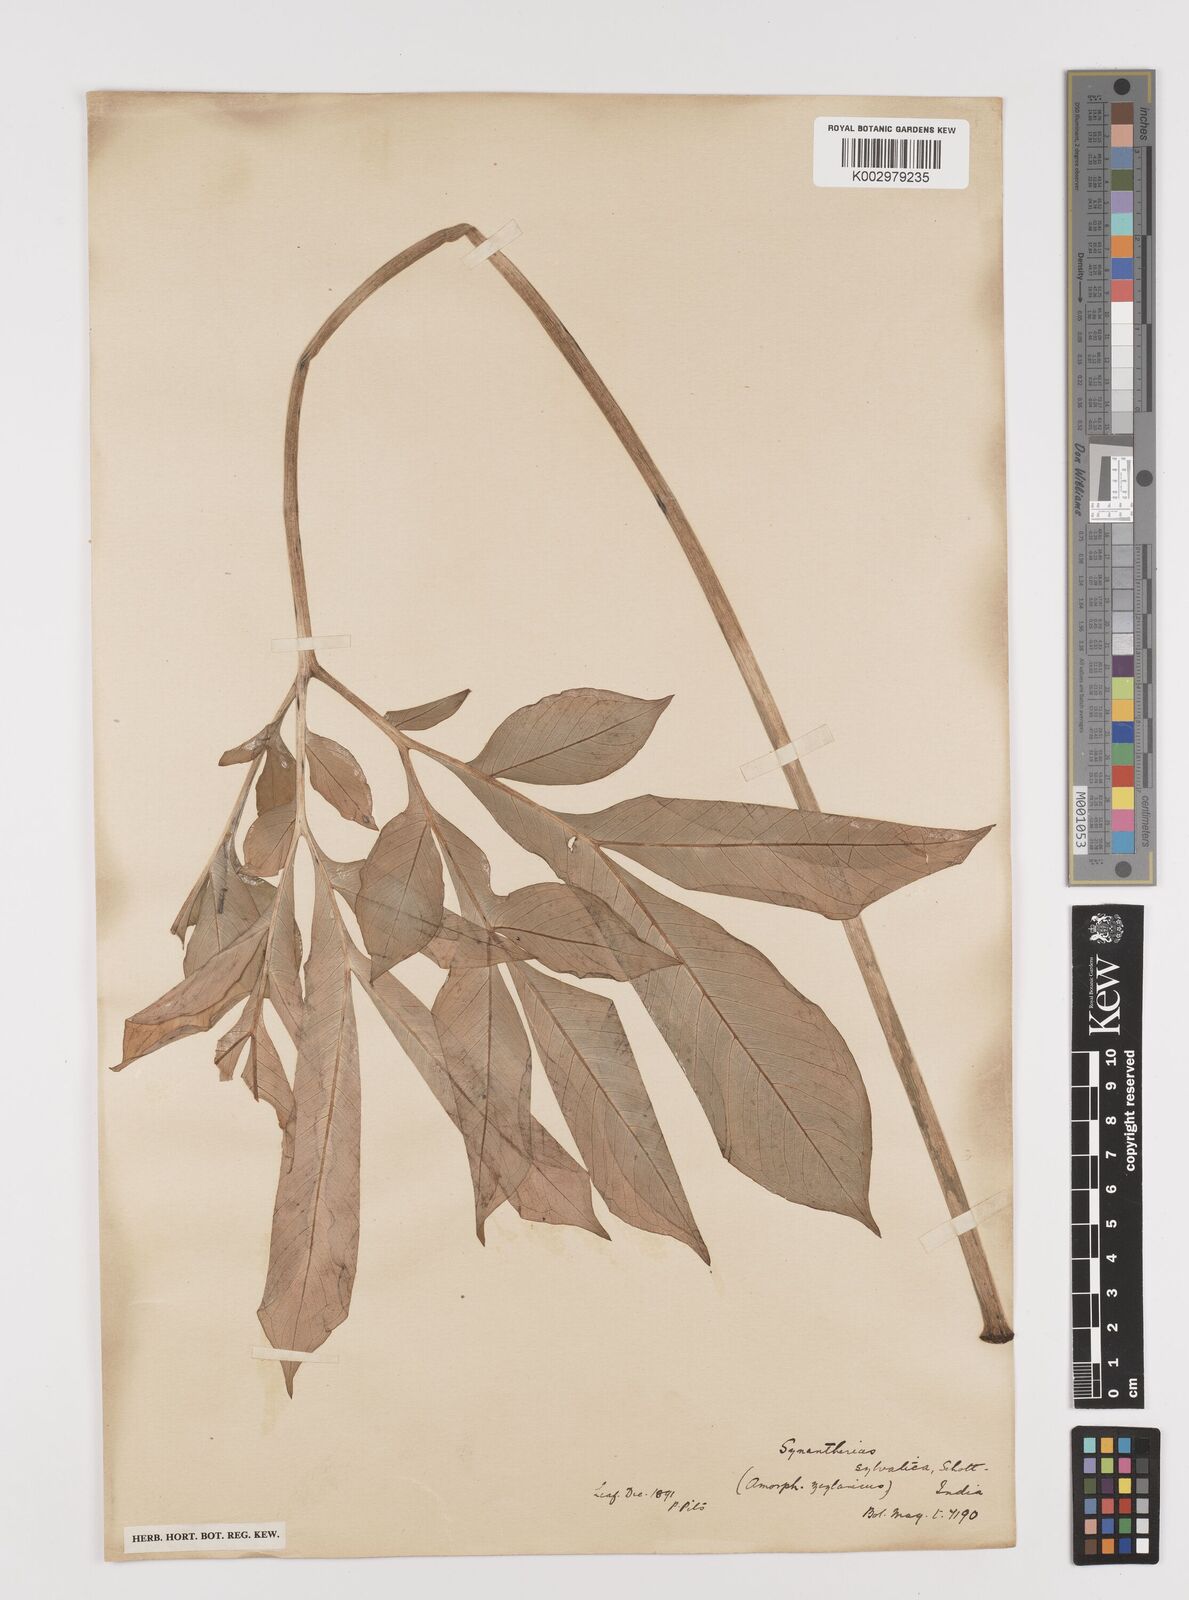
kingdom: Plantae
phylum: Tracheophyta
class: Liliopsida
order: Alismatales
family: Araceae
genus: Amorphophallus
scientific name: Amorphophallus sylvaticus
